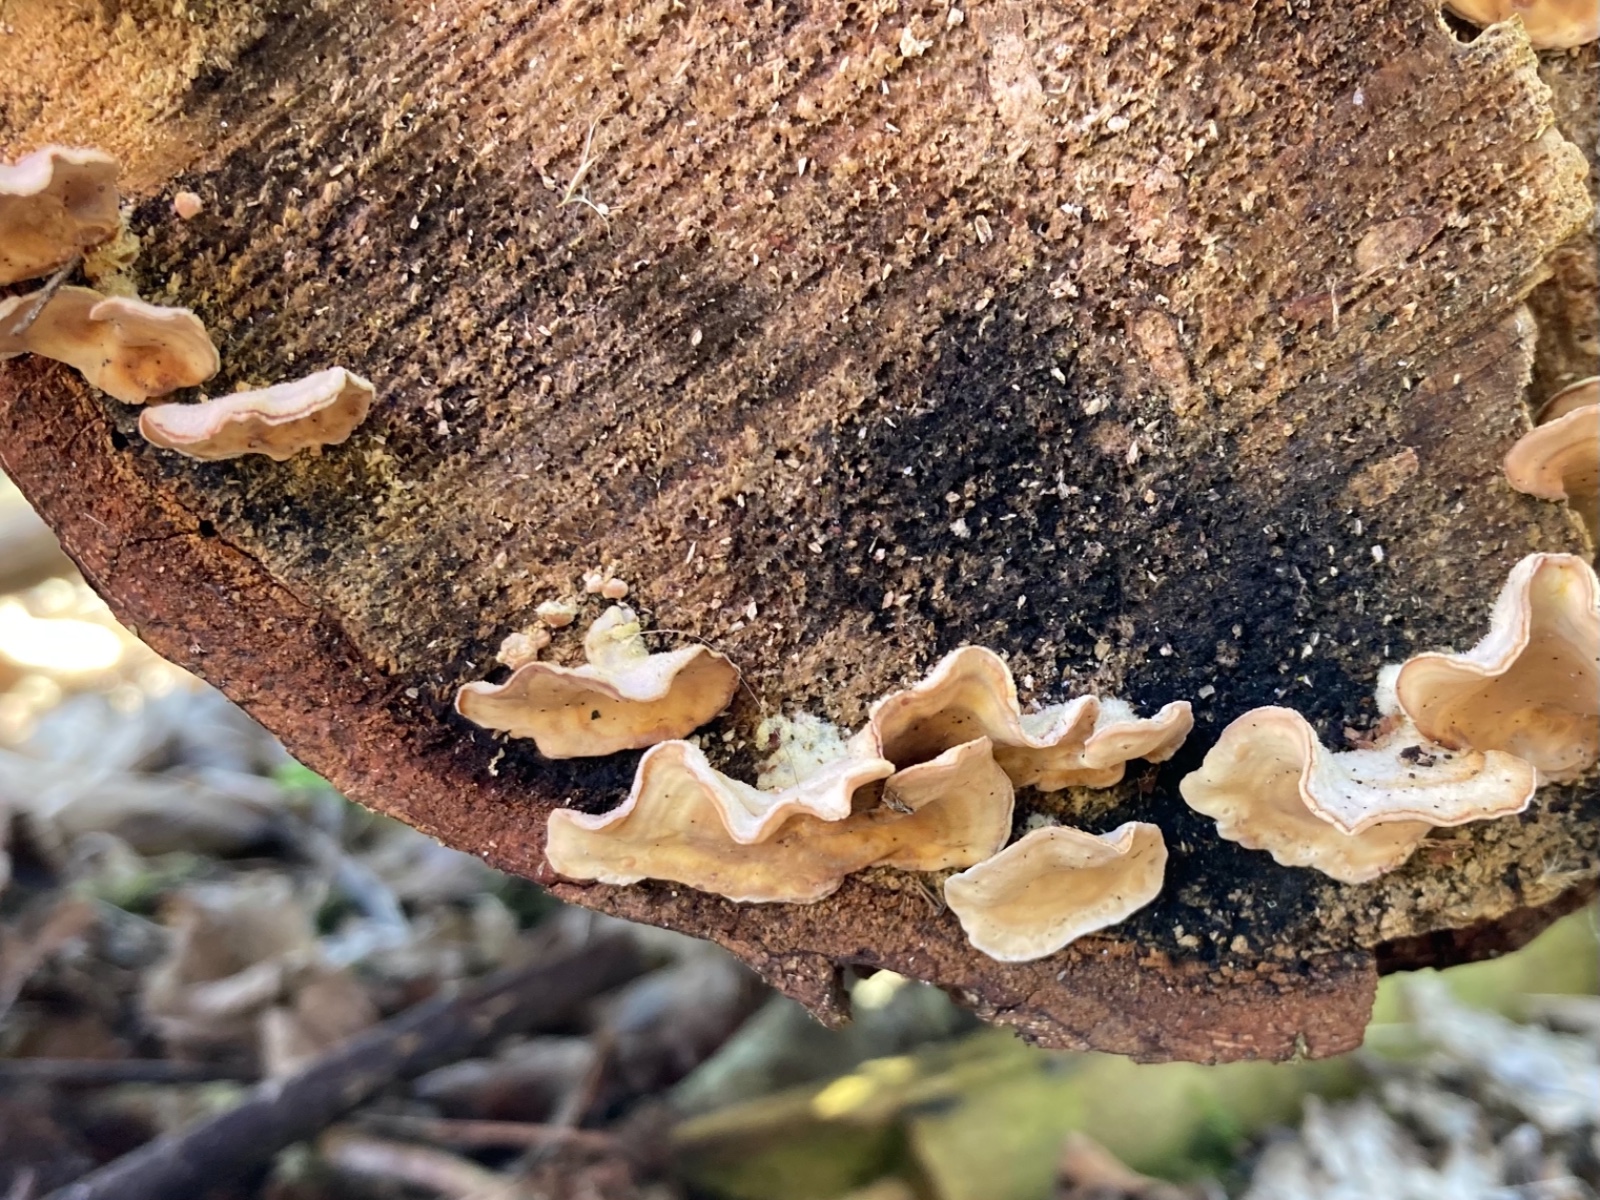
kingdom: Fungi
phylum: Basidiomycota
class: Agaricomycetes
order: Russulales
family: Stereaceae
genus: Stereum
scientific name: Stereum hirsutum
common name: håret lædersvamp
